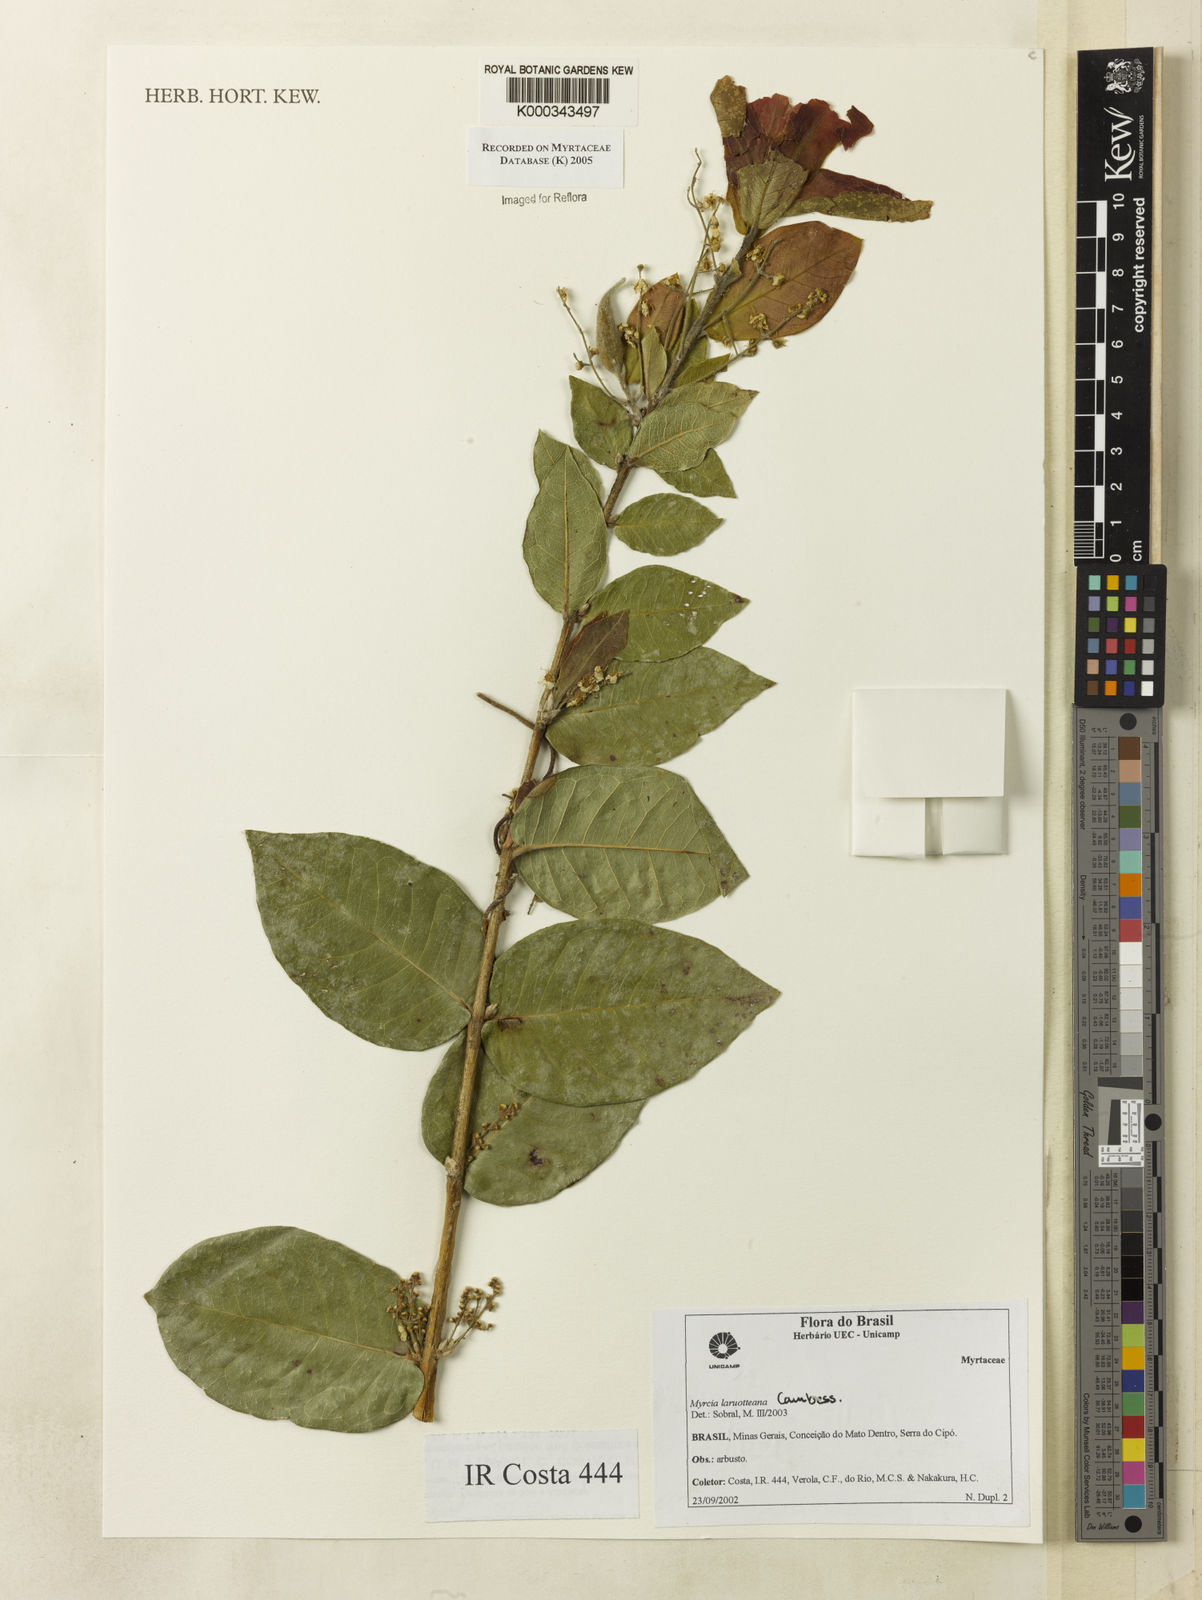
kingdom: Plantae
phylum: Tracheophyta
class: Magnoliopsida
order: Myrtales
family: Myrtaceae
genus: Myrcia
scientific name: Myrcia laruotteana
